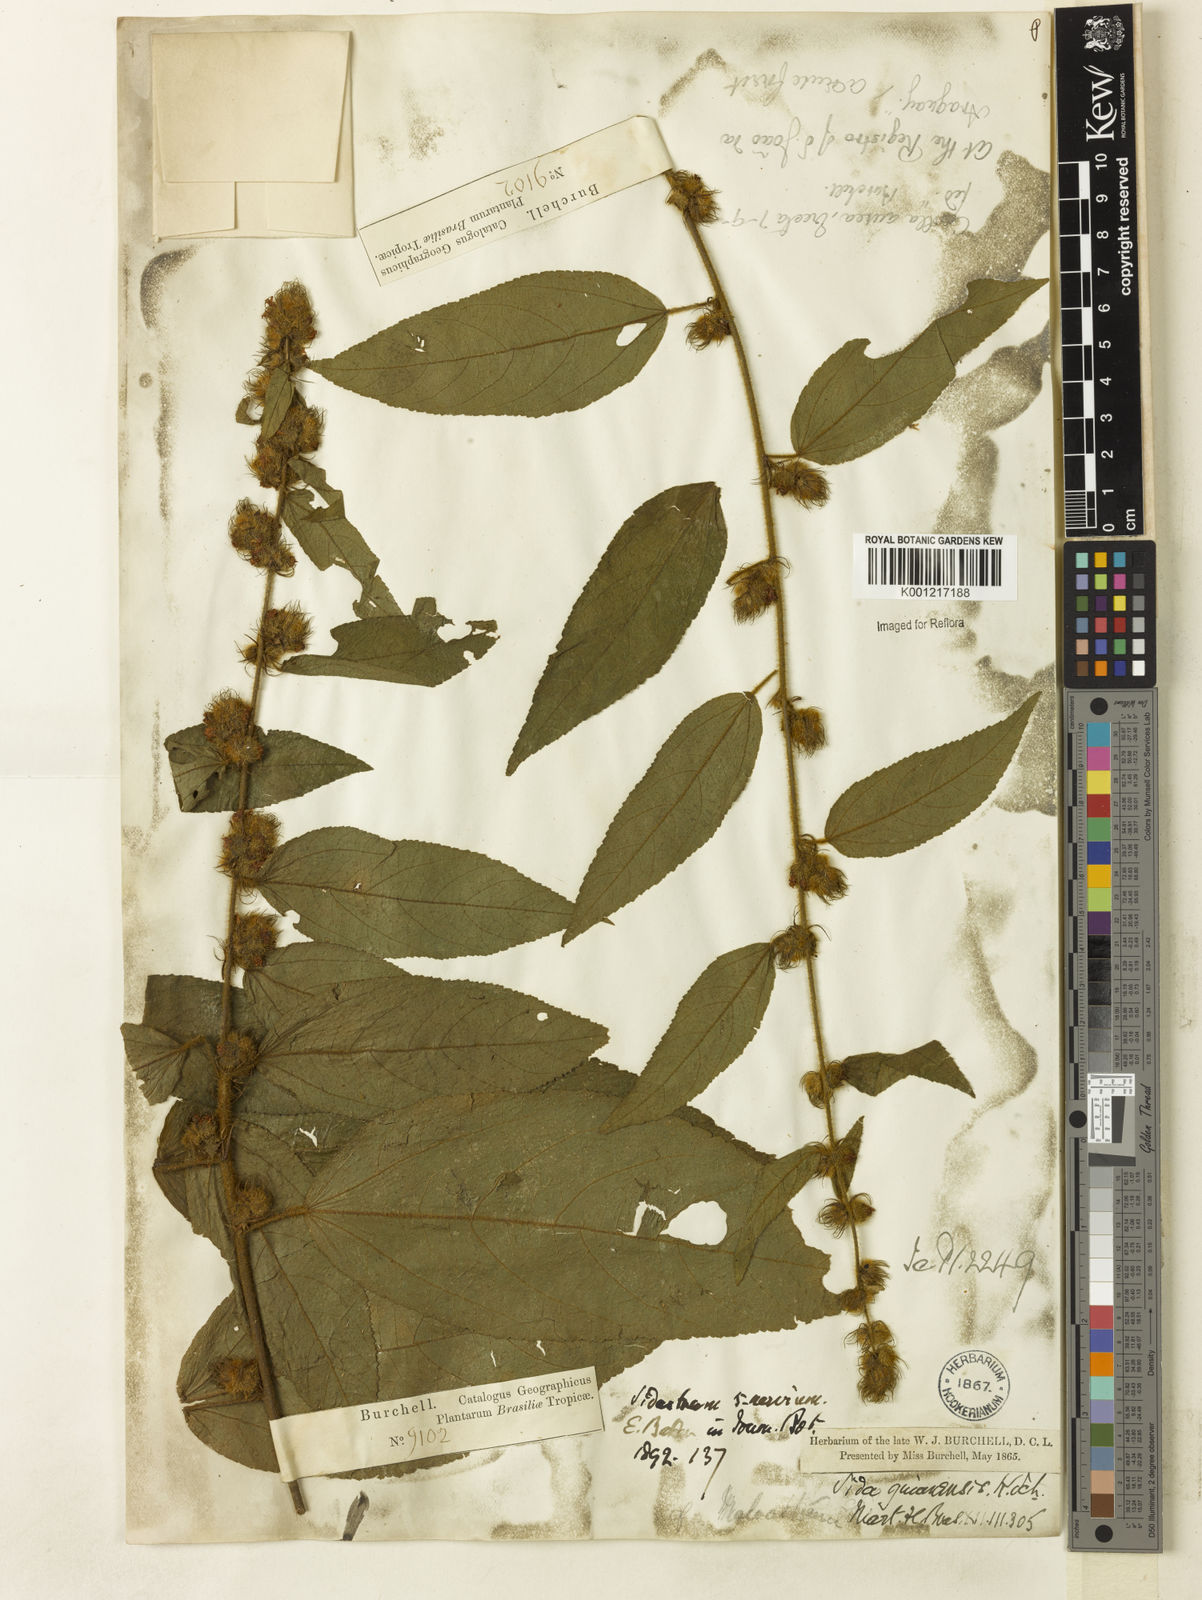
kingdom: Plantae
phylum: Tracheophyta
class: Magnoliopsida
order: Malvales
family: Malvaceae
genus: Sidastrum
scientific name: Sidastrum quinquenervium
